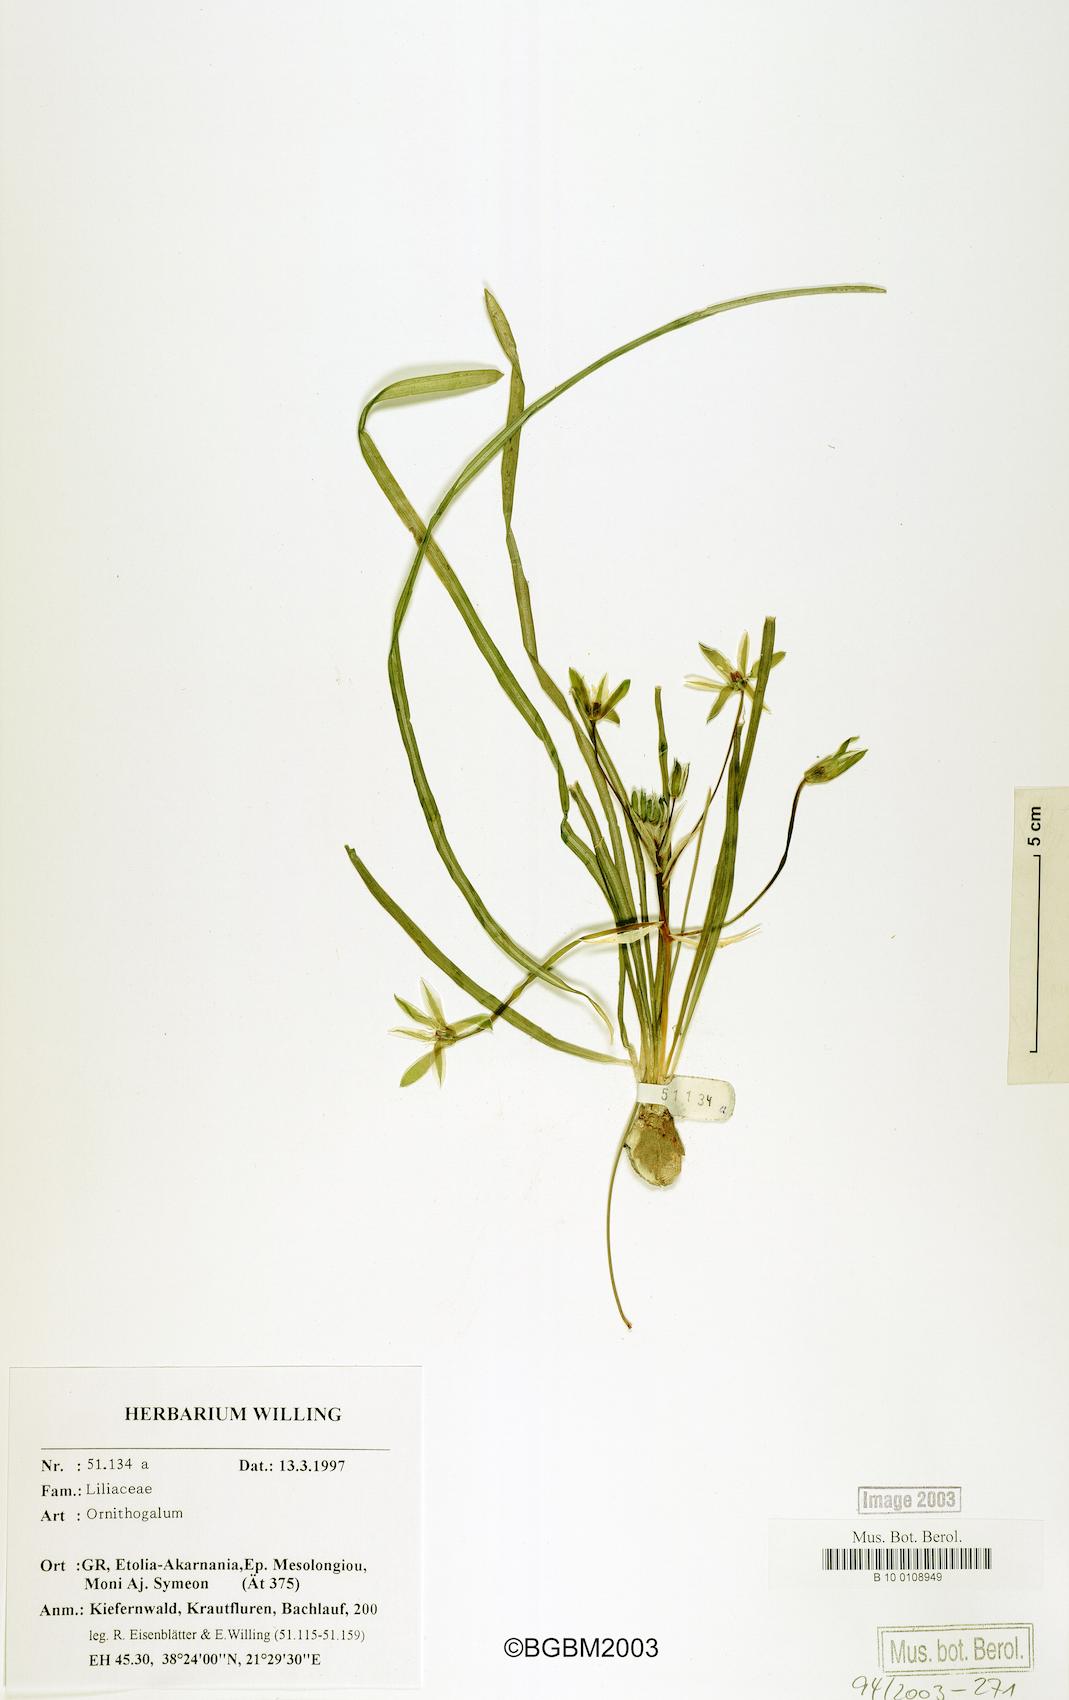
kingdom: Plantae
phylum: Tracheophyta
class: Liliopsida
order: Asparagales
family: Asparagaceae
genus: Ornithogalum
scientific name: Ornithogalum
